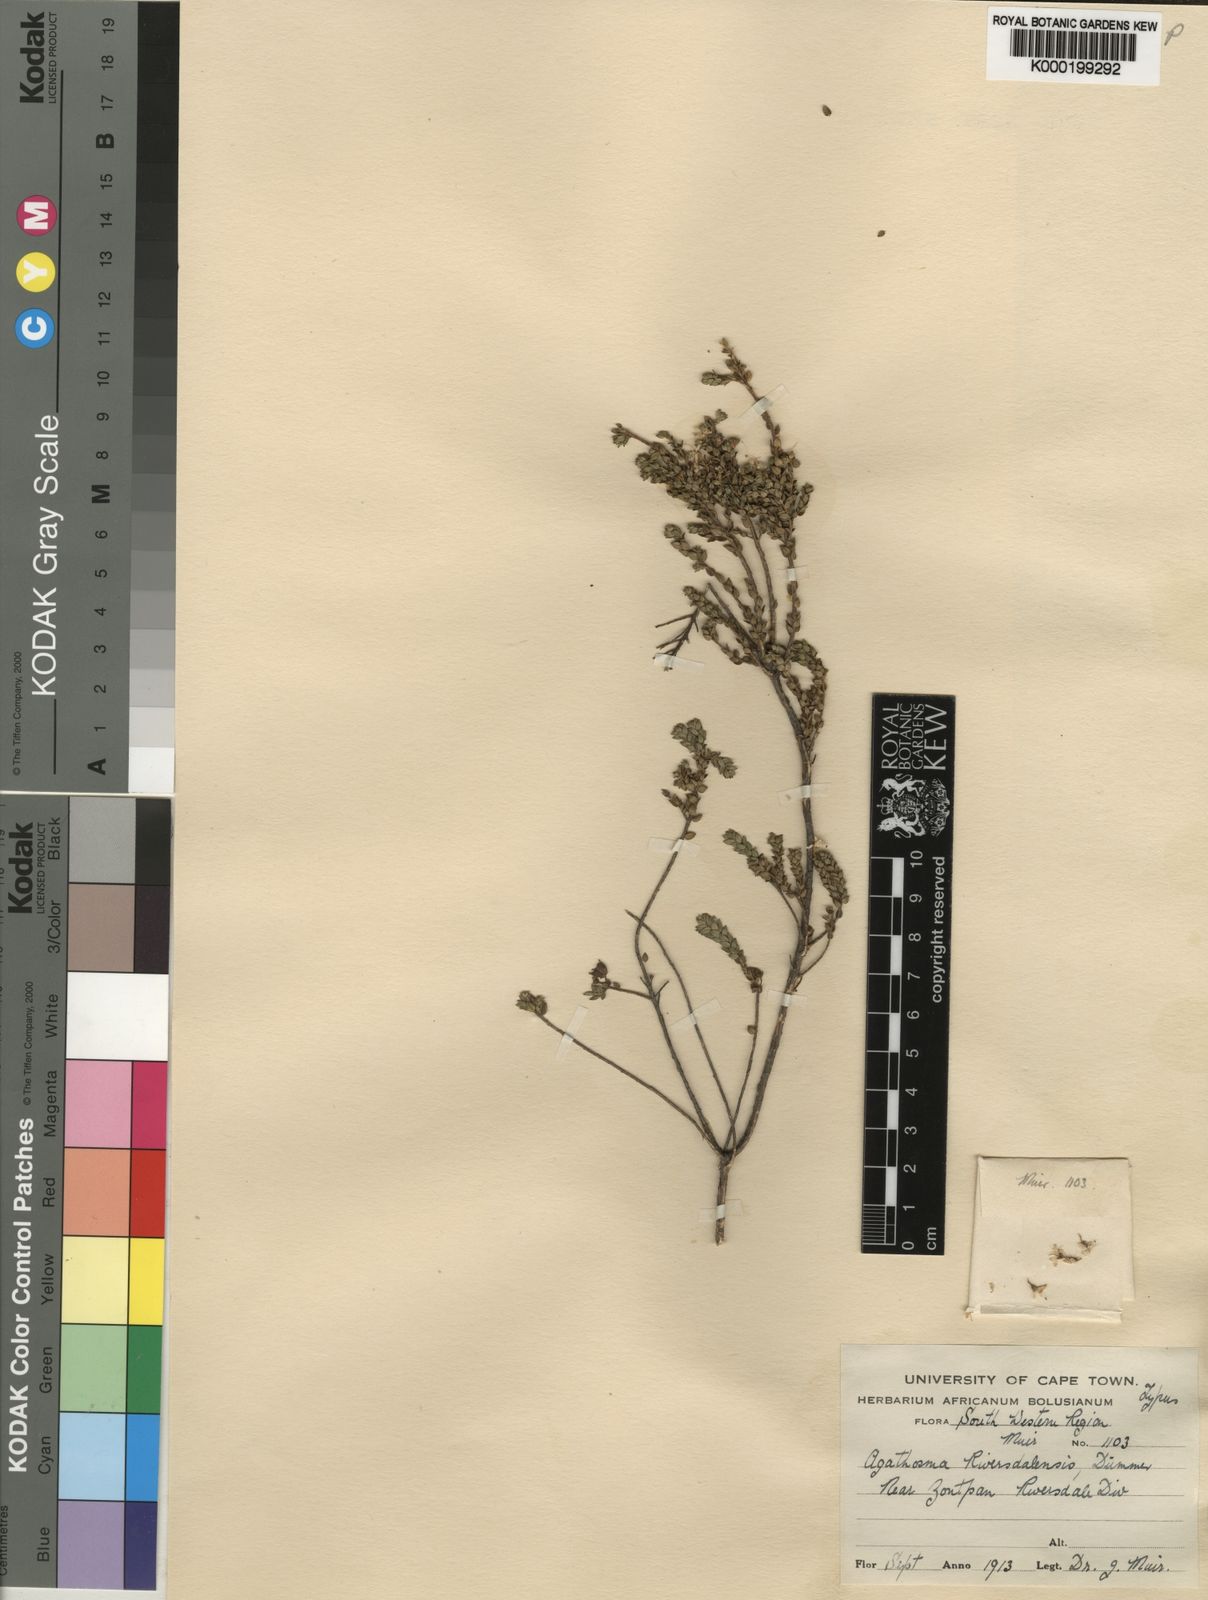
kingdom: Plantae
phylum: Tracheophyta
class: Magnoliopsida
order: Sapindales
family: Rutaceae
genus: Agathosma
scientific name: Agathosma riversdalensis
